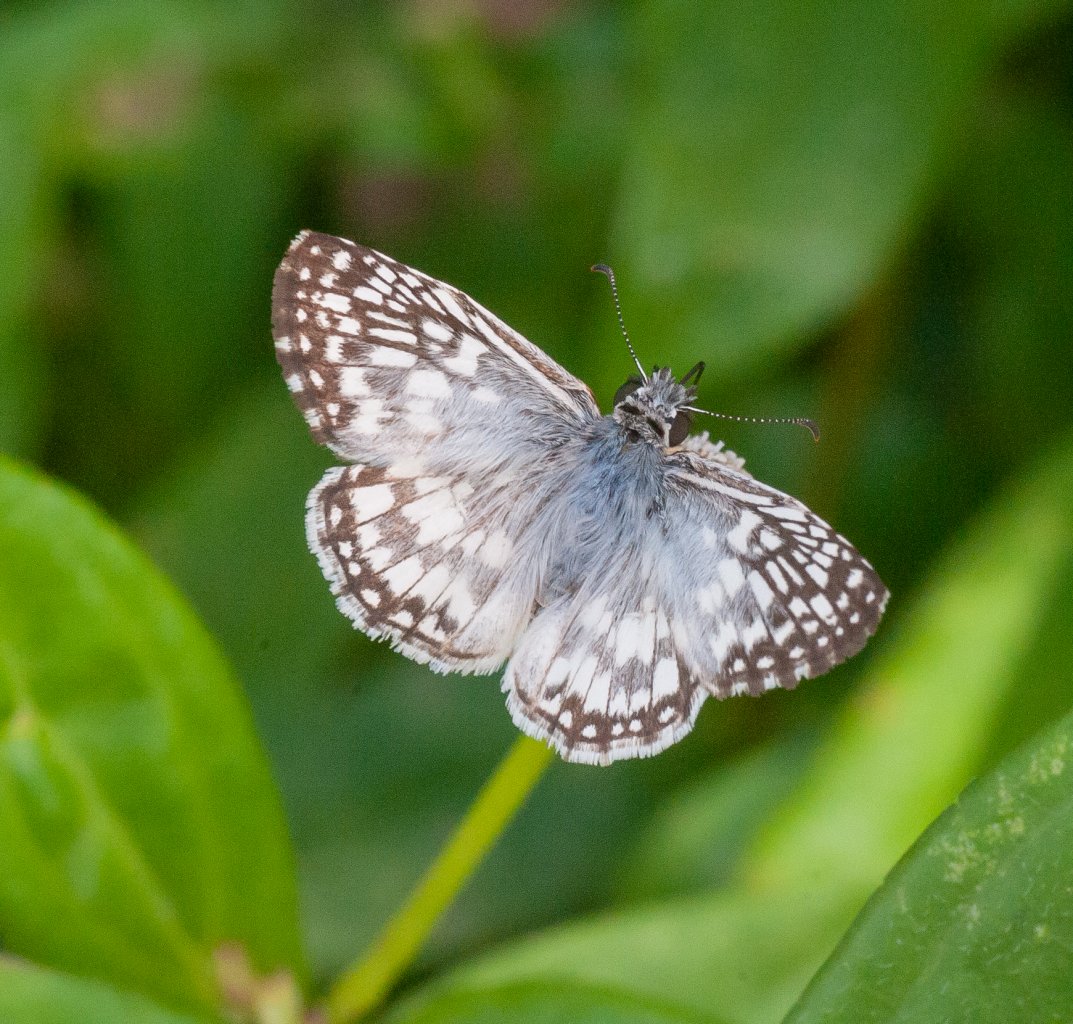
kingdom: Animalia
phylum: Arthropoda
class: Insecta
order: Lepidoptera
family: Hesperiidae
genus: Pyrgus
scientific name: Pyrgus oileus
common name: Tropical Checkered-Skipper
